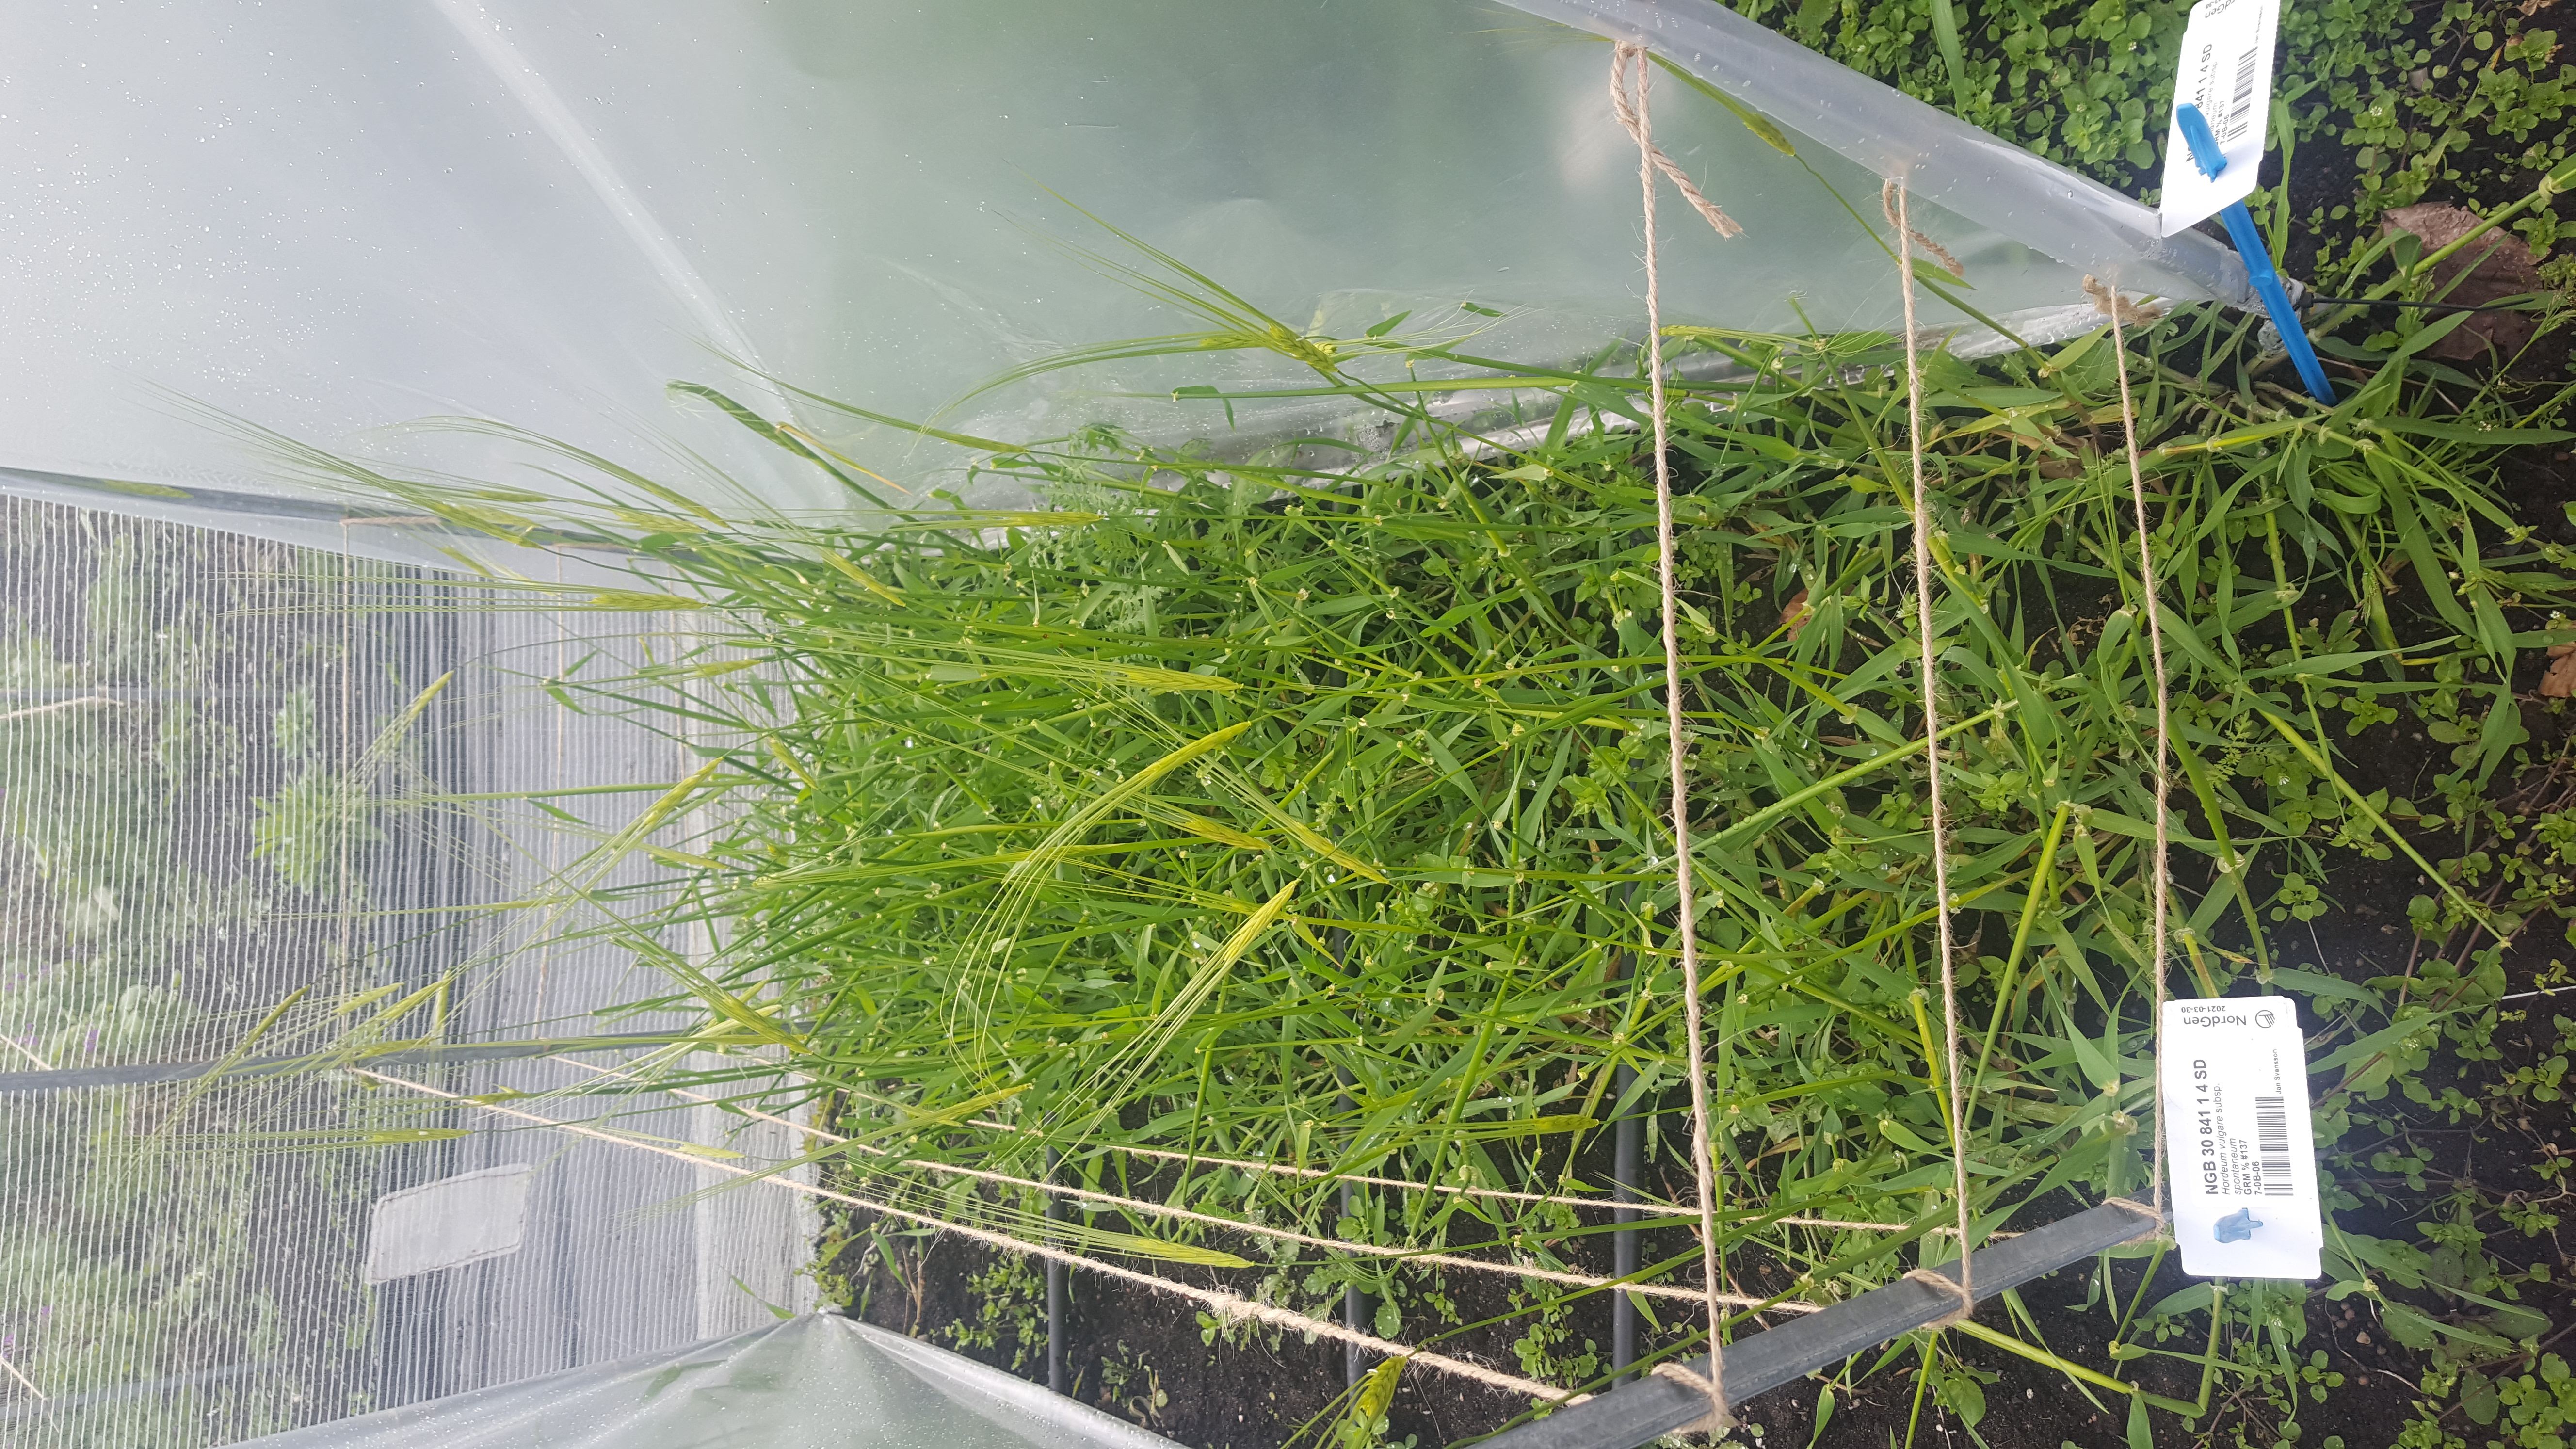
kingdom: Plantae
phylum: Tracheophyta
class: Liliopsida
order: Poales
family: Poaceae
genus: Hordeum
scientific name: Hordeum spontaneum
